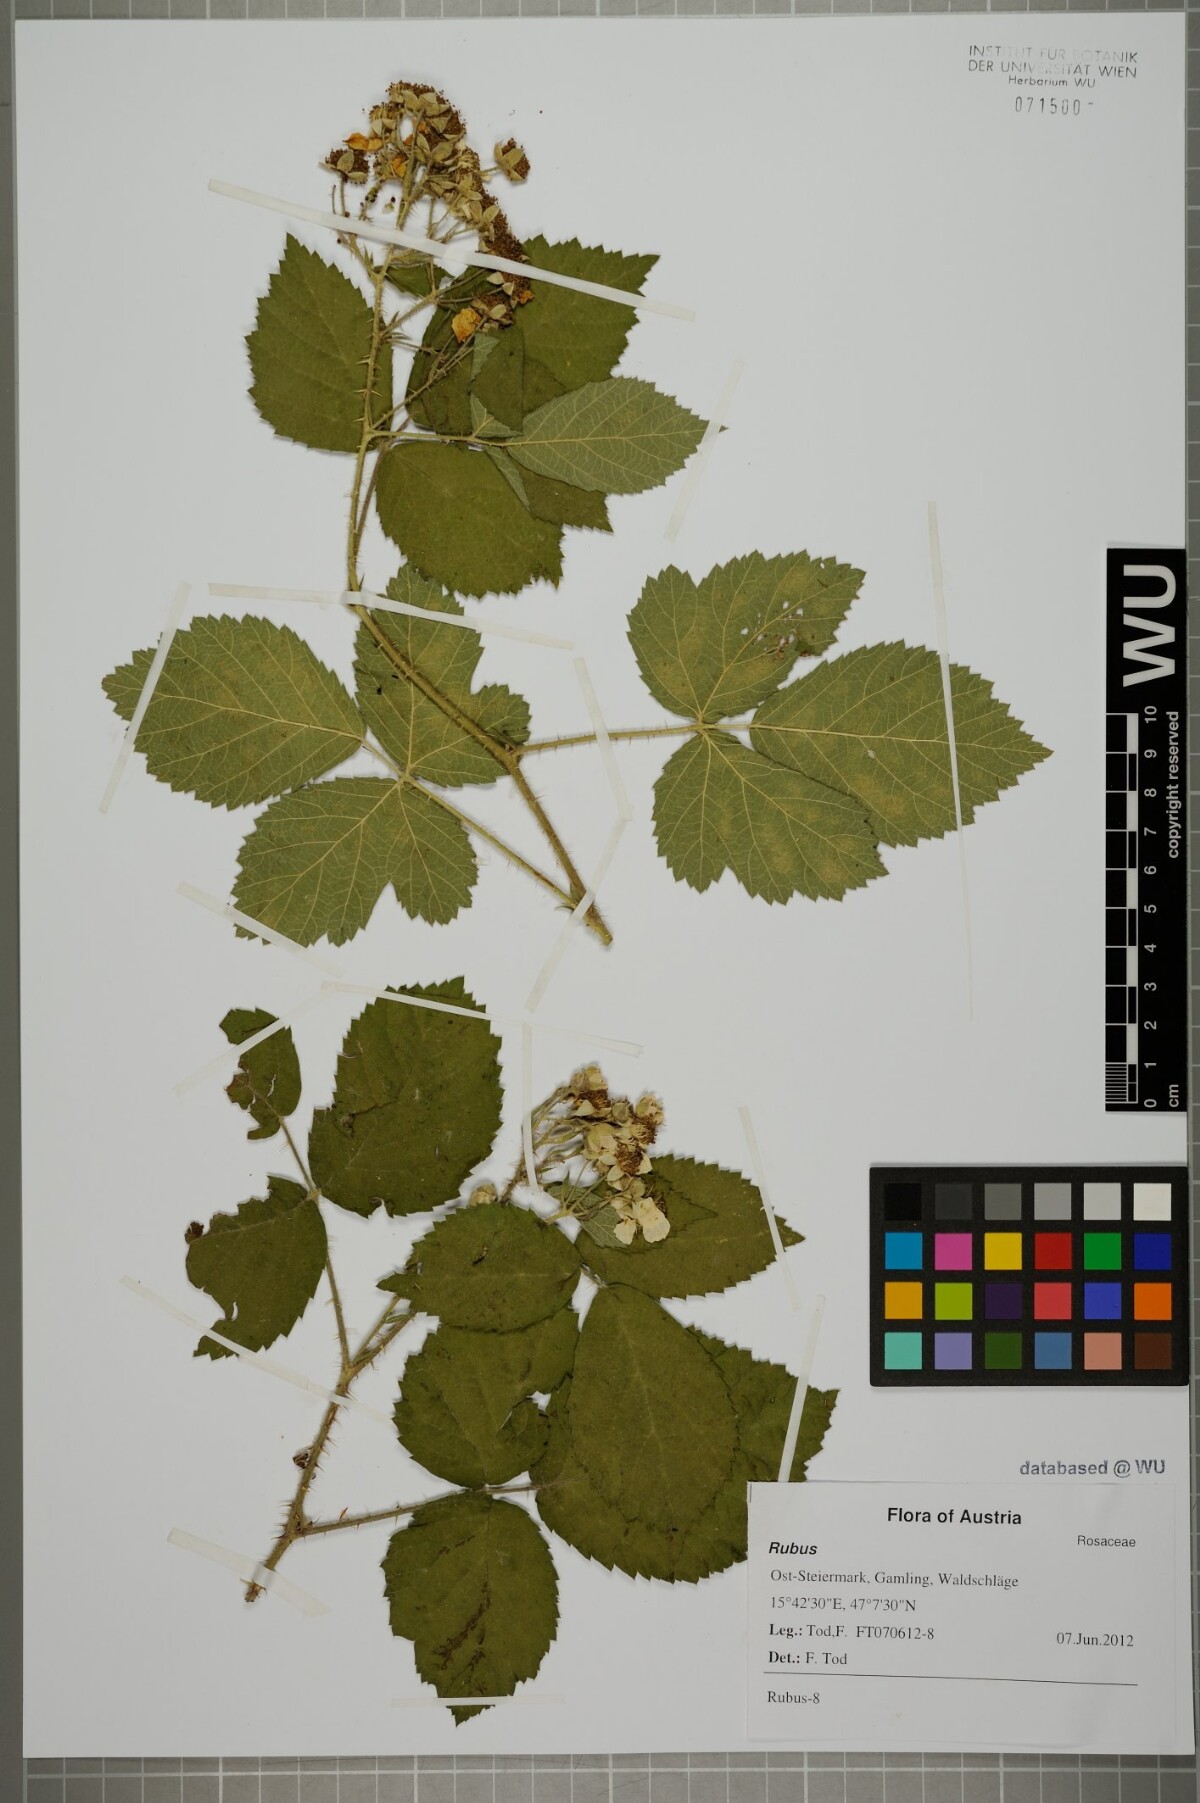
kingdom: Plantae
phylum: Tracheophyta
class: Magnoliopsida
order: Rosales
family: Rosaceae
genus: Rubus
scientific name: Rubus
